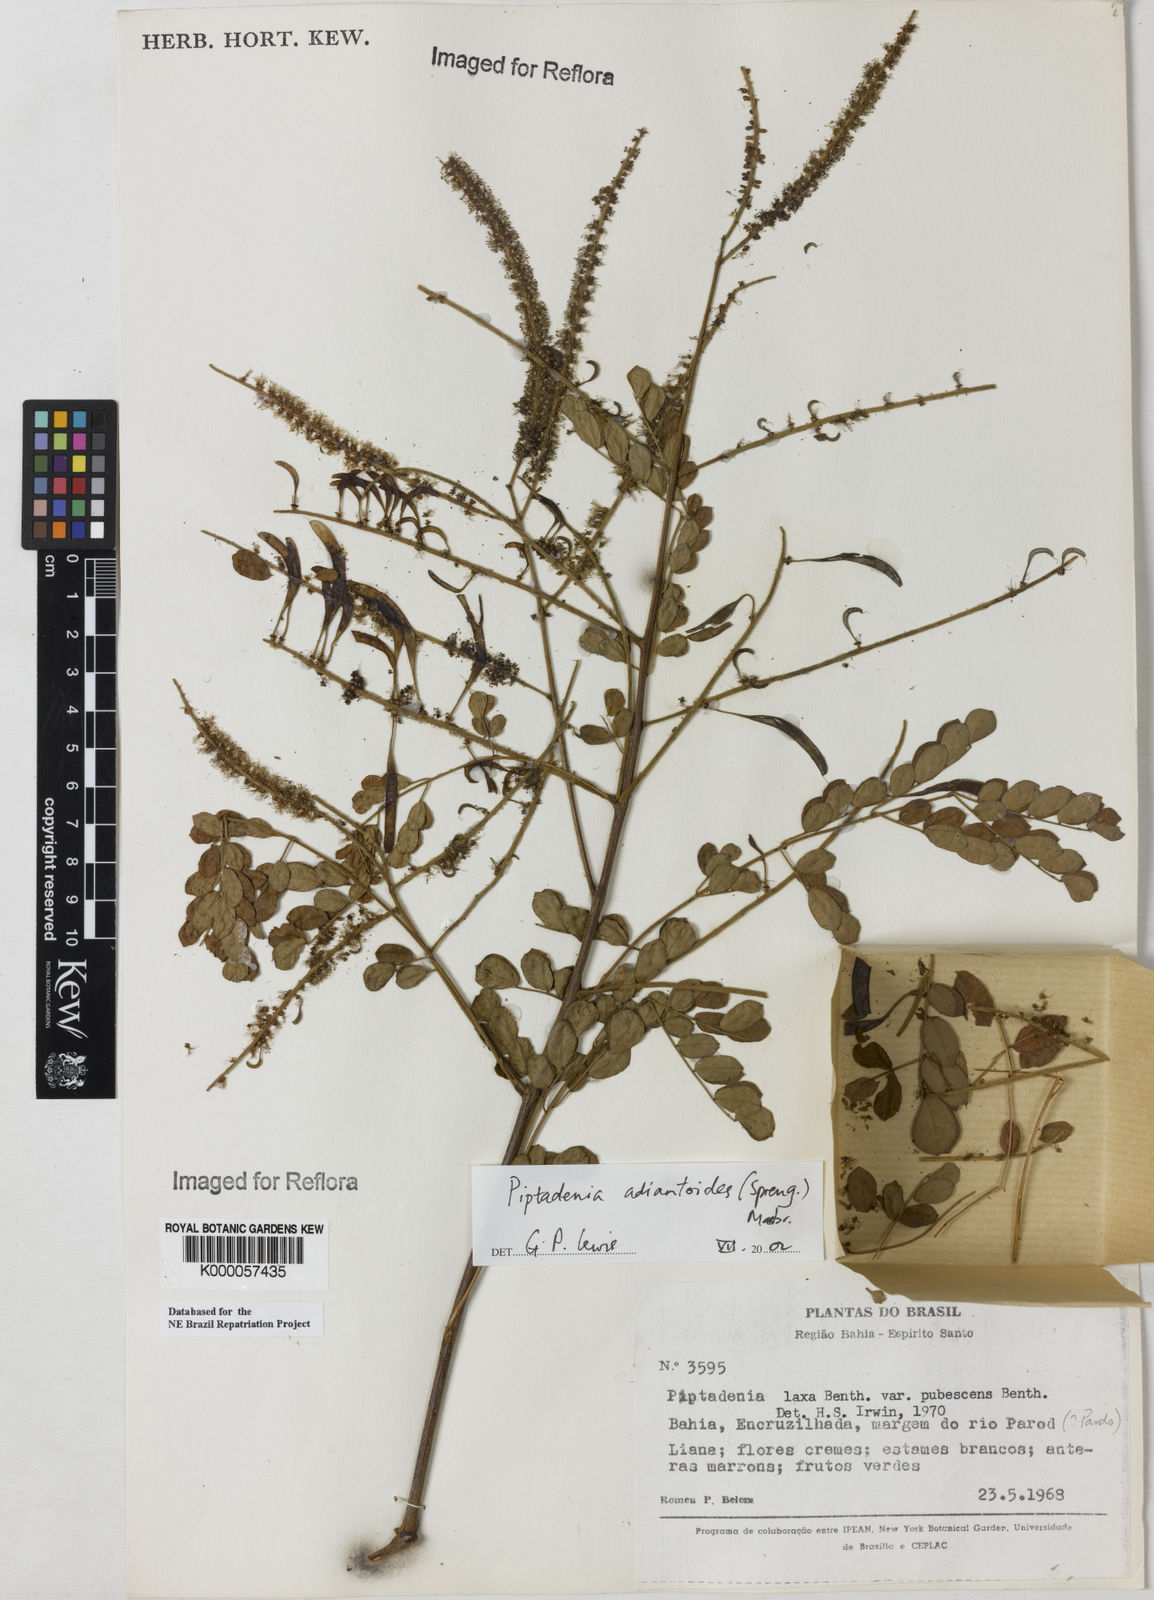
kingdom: Plantae
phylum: Tracheophyta
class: Magnoliopsida
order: Fabales
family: Fabaceae
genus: Piptadenia
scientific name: Piptadenia adiantoides
